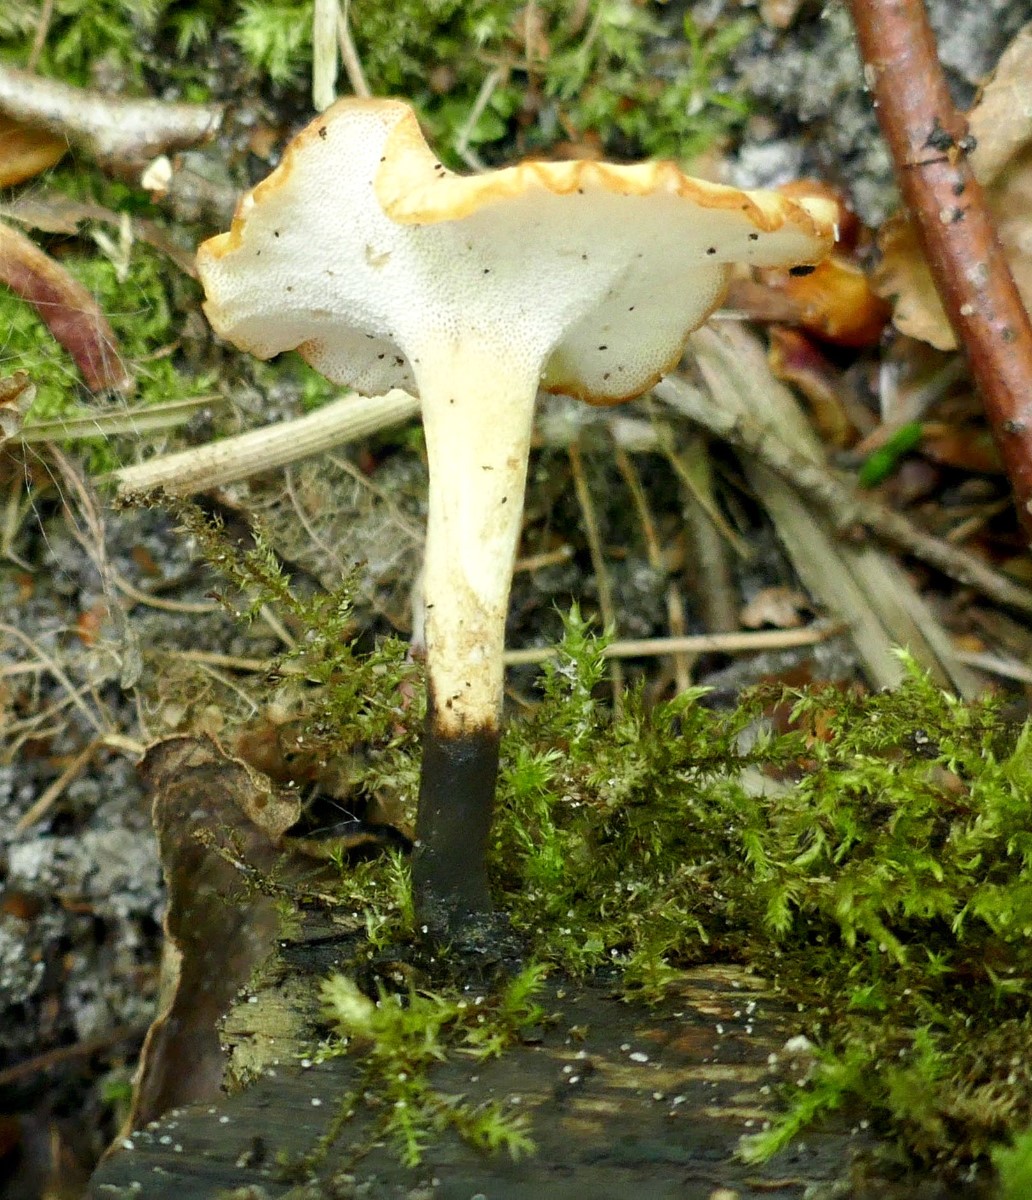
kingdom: Fungi
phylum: Basidiomycota
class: Agaricomycetes
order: Polyporales
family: Polyporaceae
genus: Cerioporus
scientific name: Cerioporus varius
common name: foranderlig stilkporesvamp
